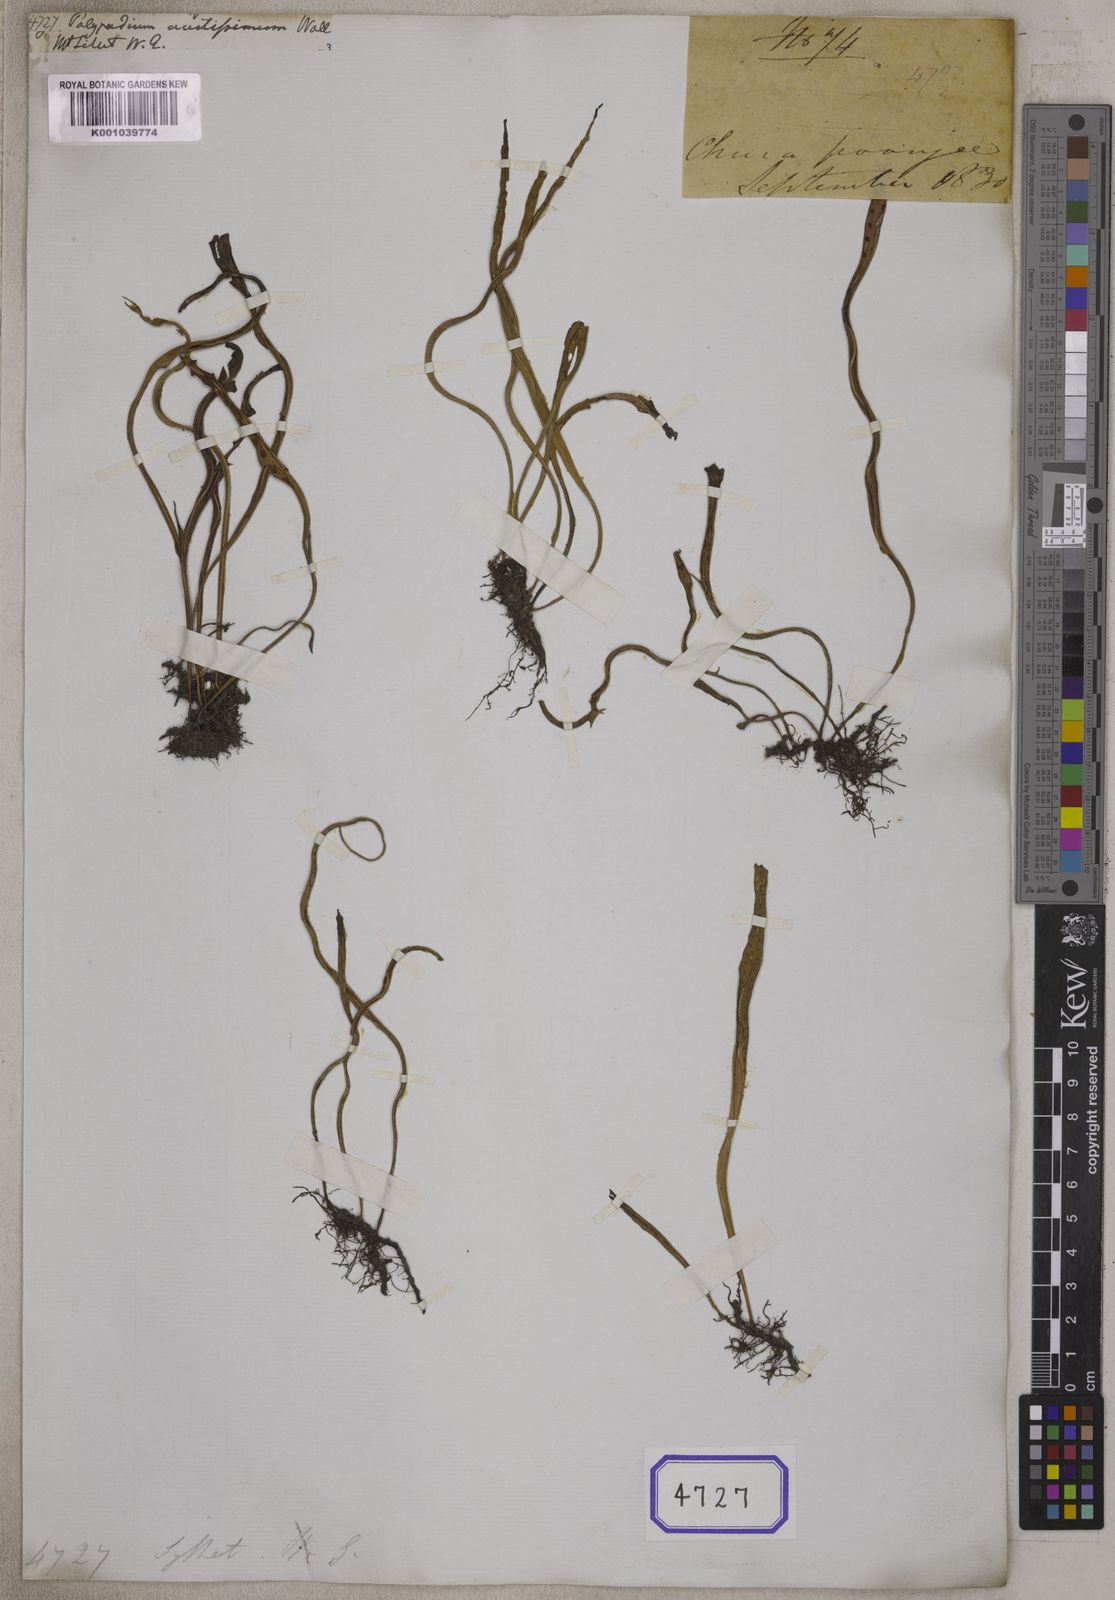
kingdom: Plantae
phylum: Tracheophyta
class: Magnoliopsida
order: Saxifragales
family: Paeoniaceae
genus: Paeonia
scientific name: Paeonia
